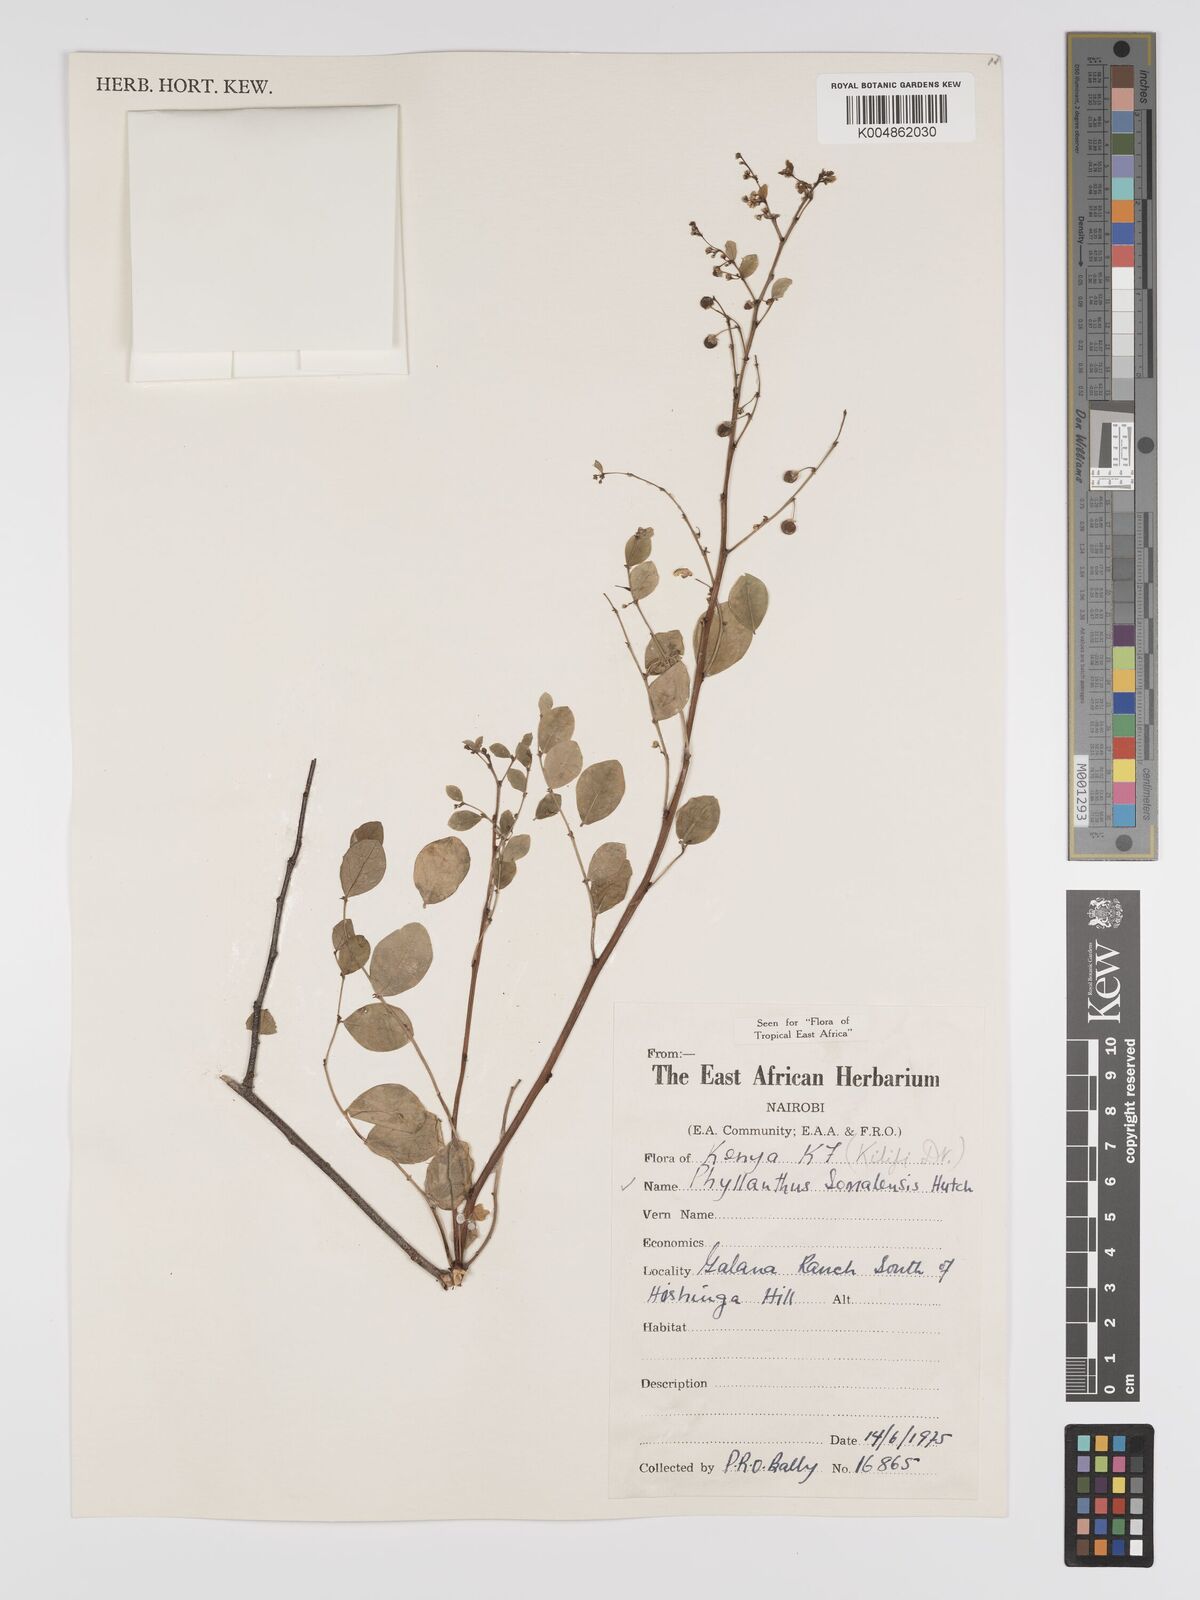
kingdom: Plantae
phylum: Tracheophyta
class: Magnoliopsida
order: Malpighiales
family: Phyllanthaceae
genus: Phyllanthus
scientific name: Phyllanthus somalensis
